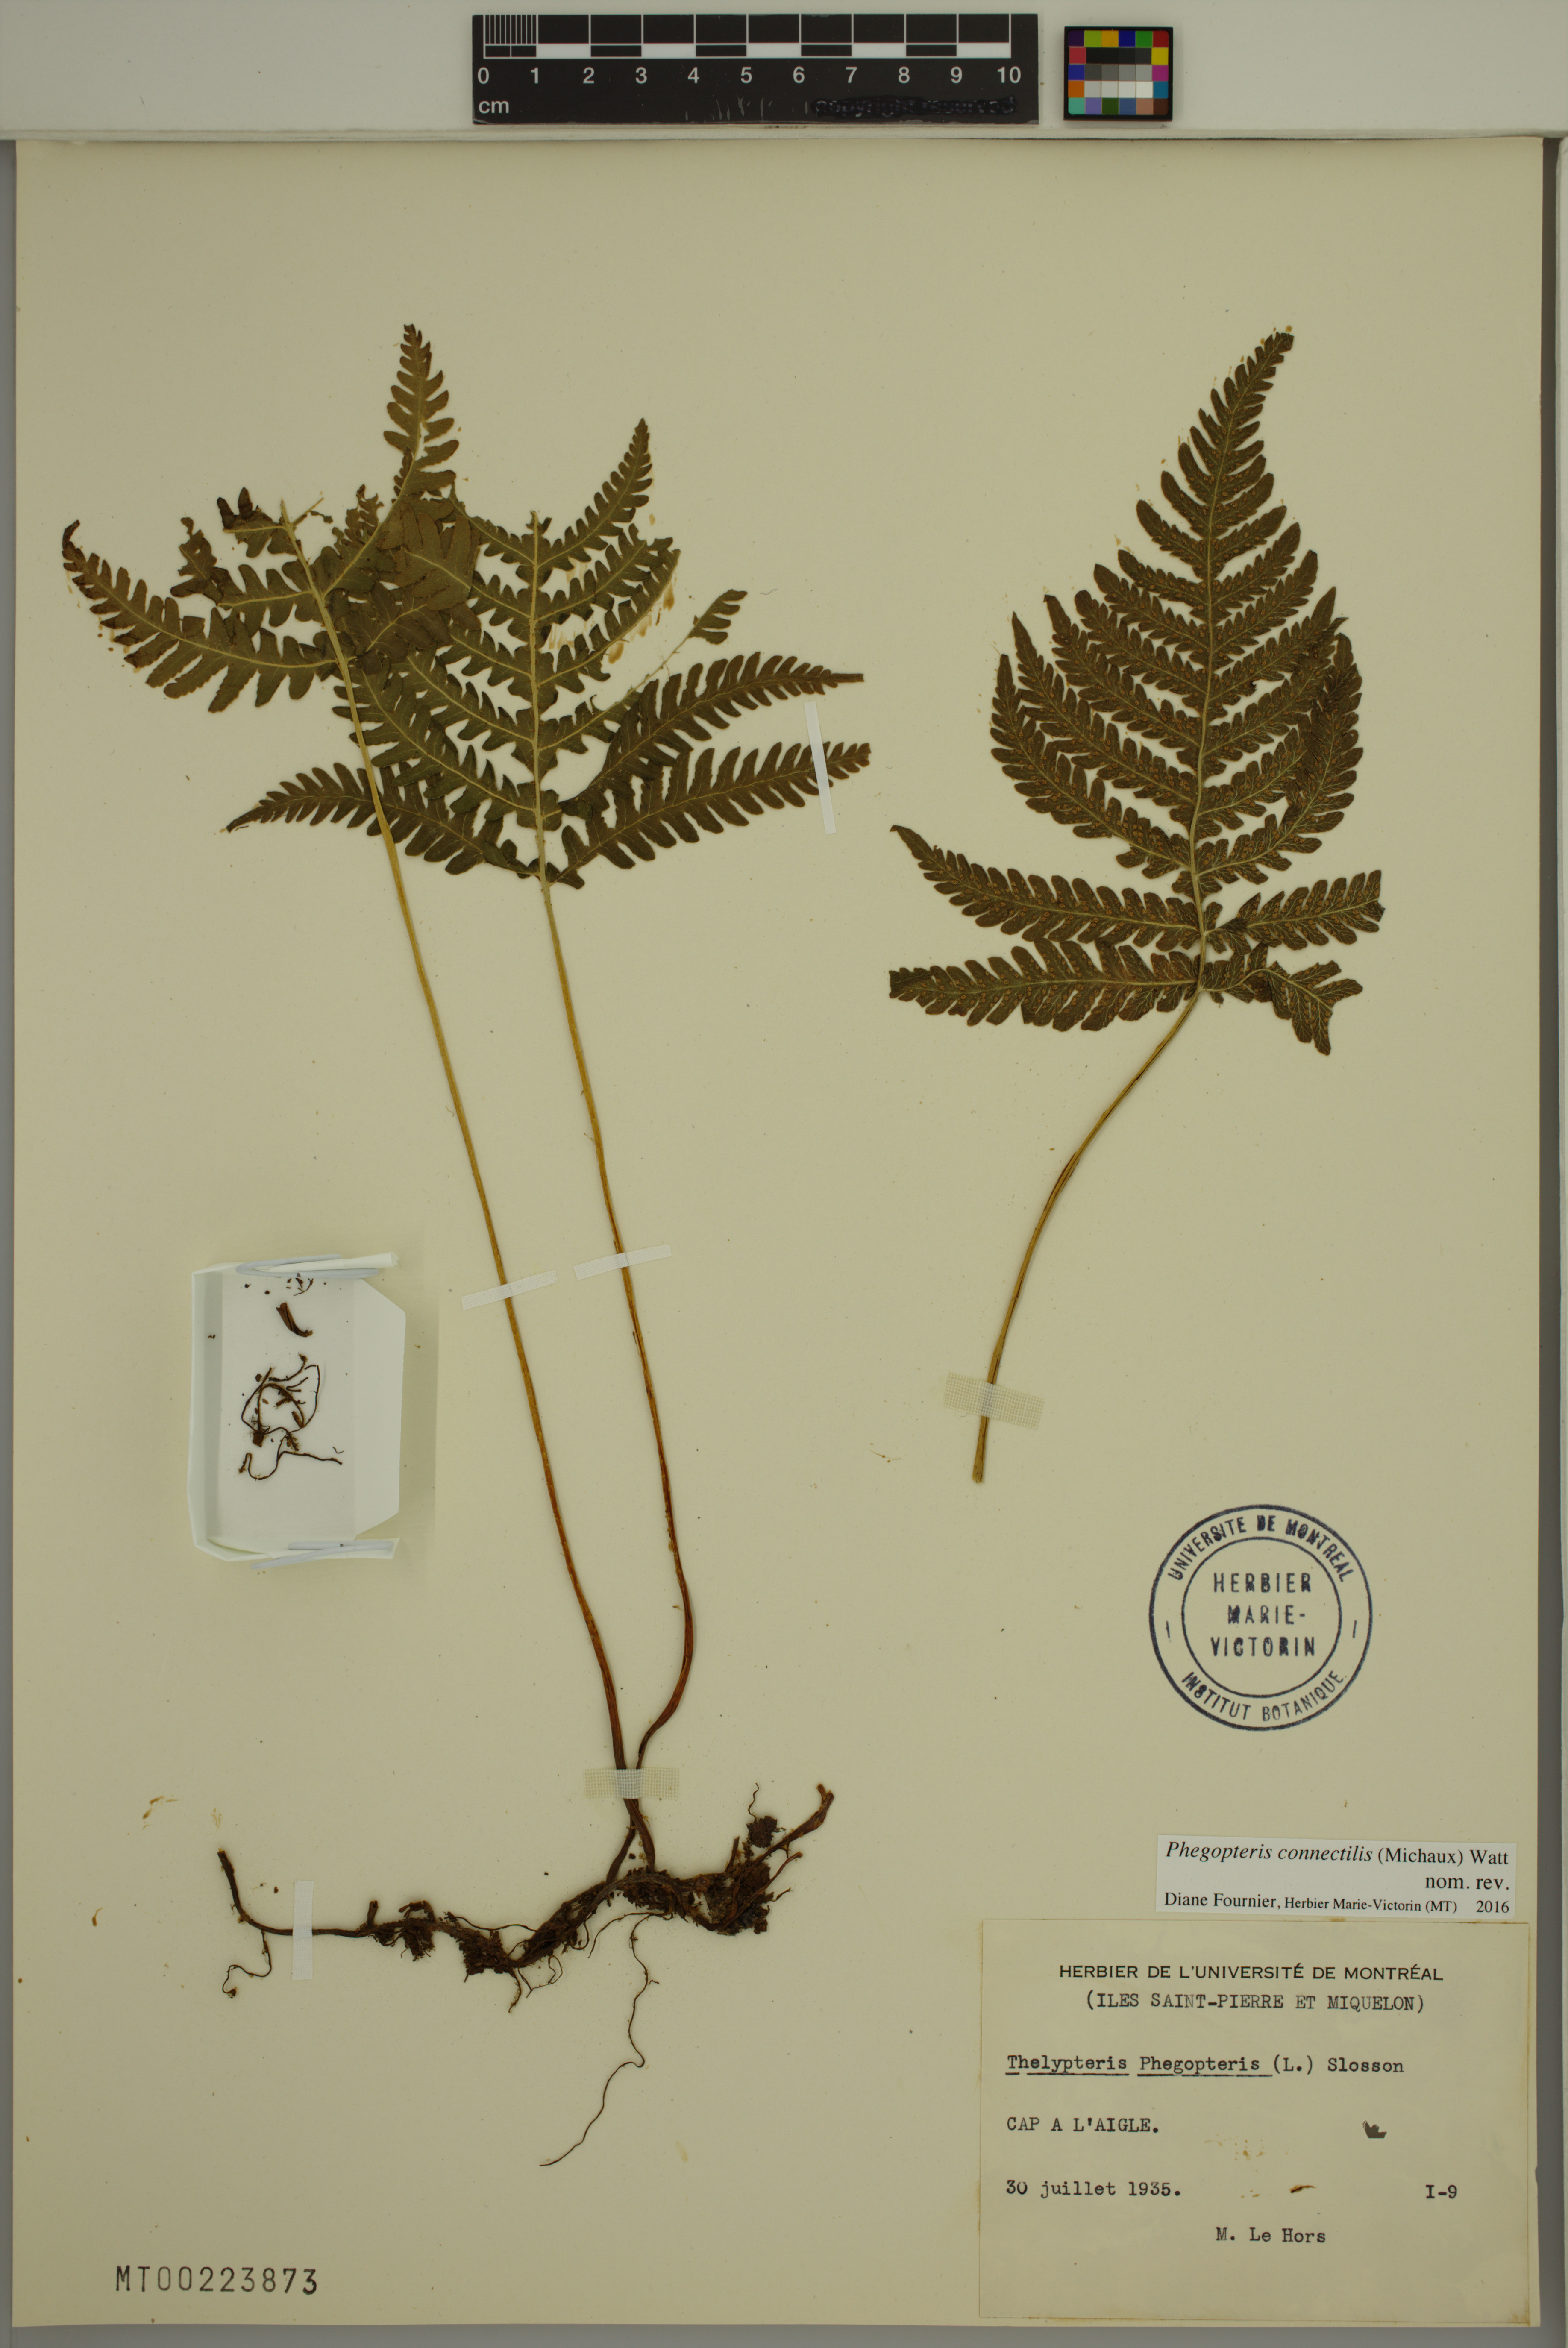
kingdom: Plantae
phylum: Tracheophyta
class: Polypodiopsida
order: Polypodiales
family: Thelypteridaceae
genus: Phegopteris
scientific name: Phegopteris connectilis
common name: Beech fern
